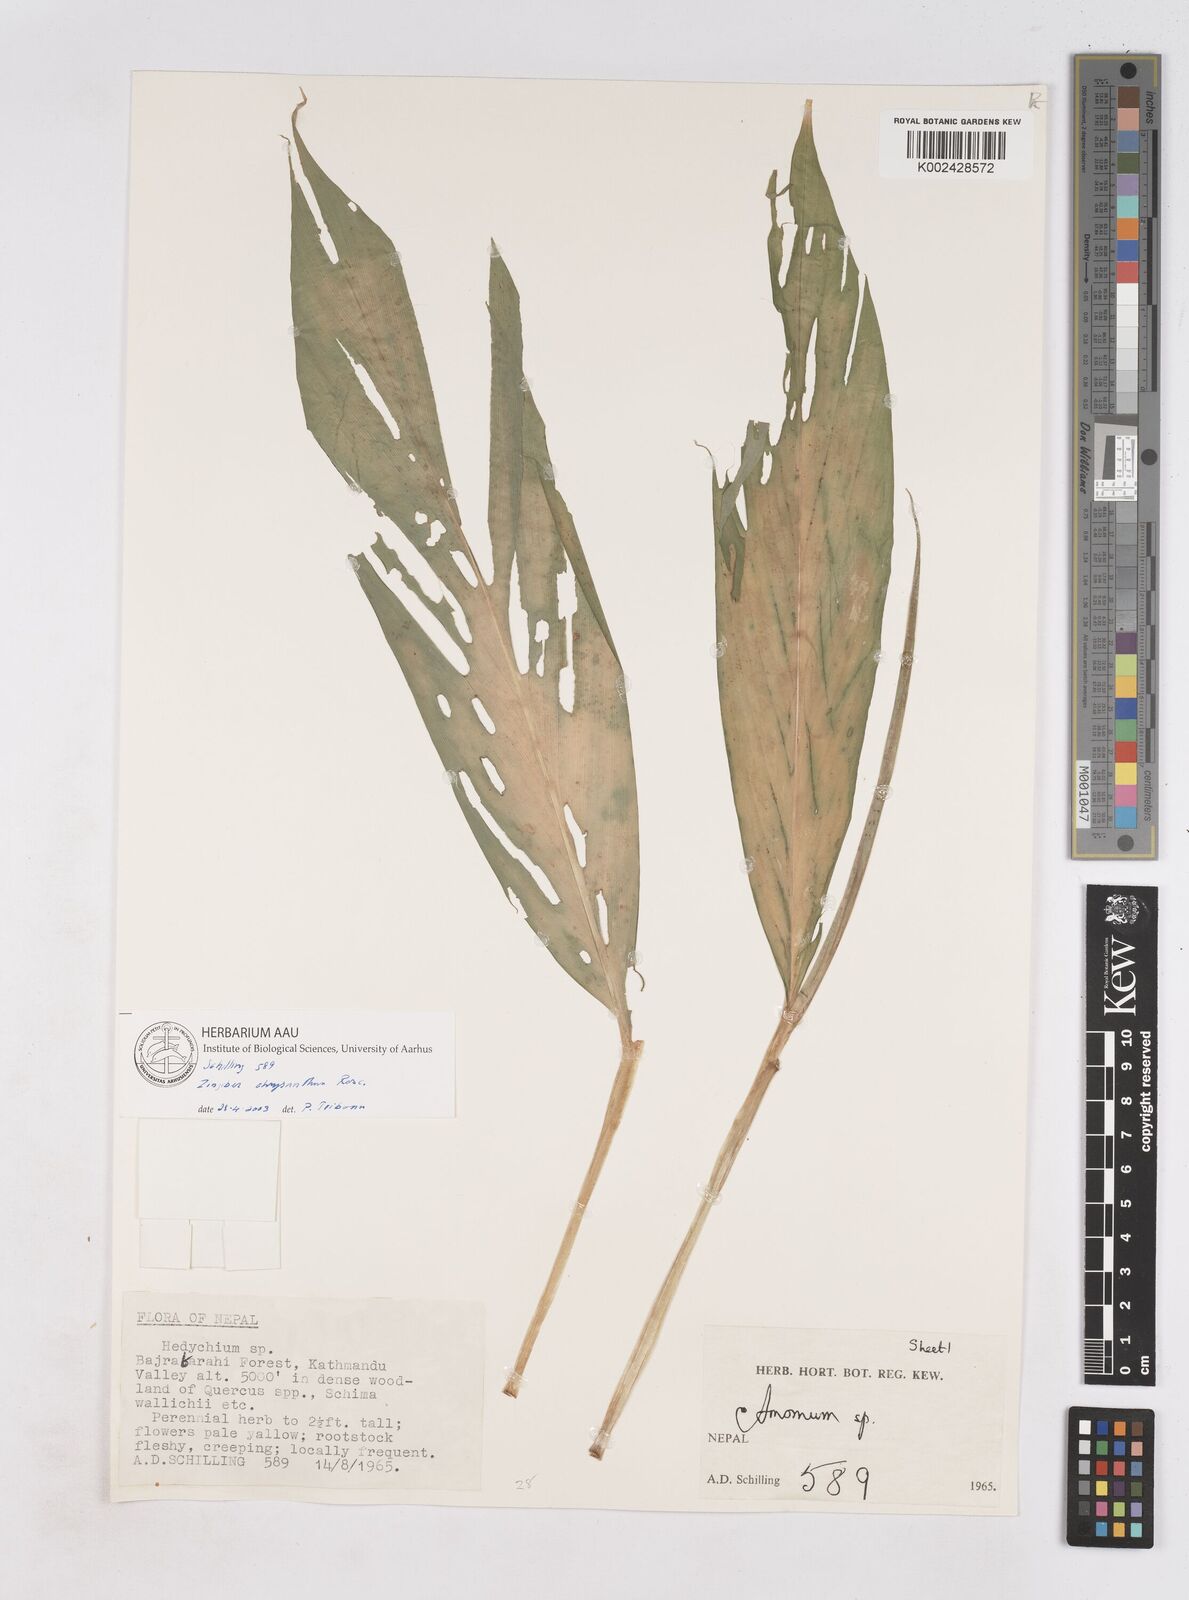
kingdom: Plantae
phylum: Tracheophyta
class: Liliopsida
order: Zingiberales
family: Zingiberaceae
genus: Zingiber
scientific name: Zingiber chrysanthum
